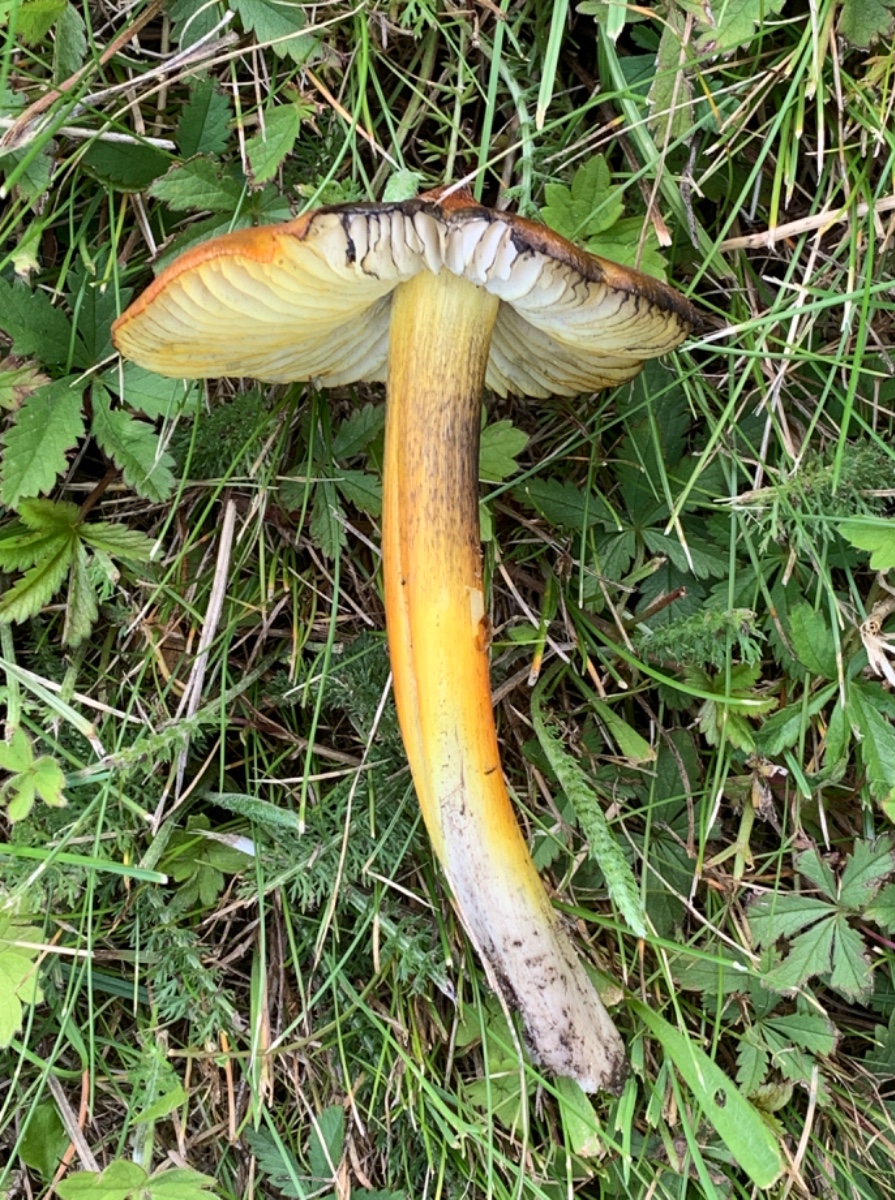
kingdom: Fungi
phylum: Basidiomycota
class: Agaricomycetes
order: Agaricales
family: Hygrophoraceae
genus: Hygrocybe
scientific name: Hygrocybe conica
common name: kegle-vokshat
